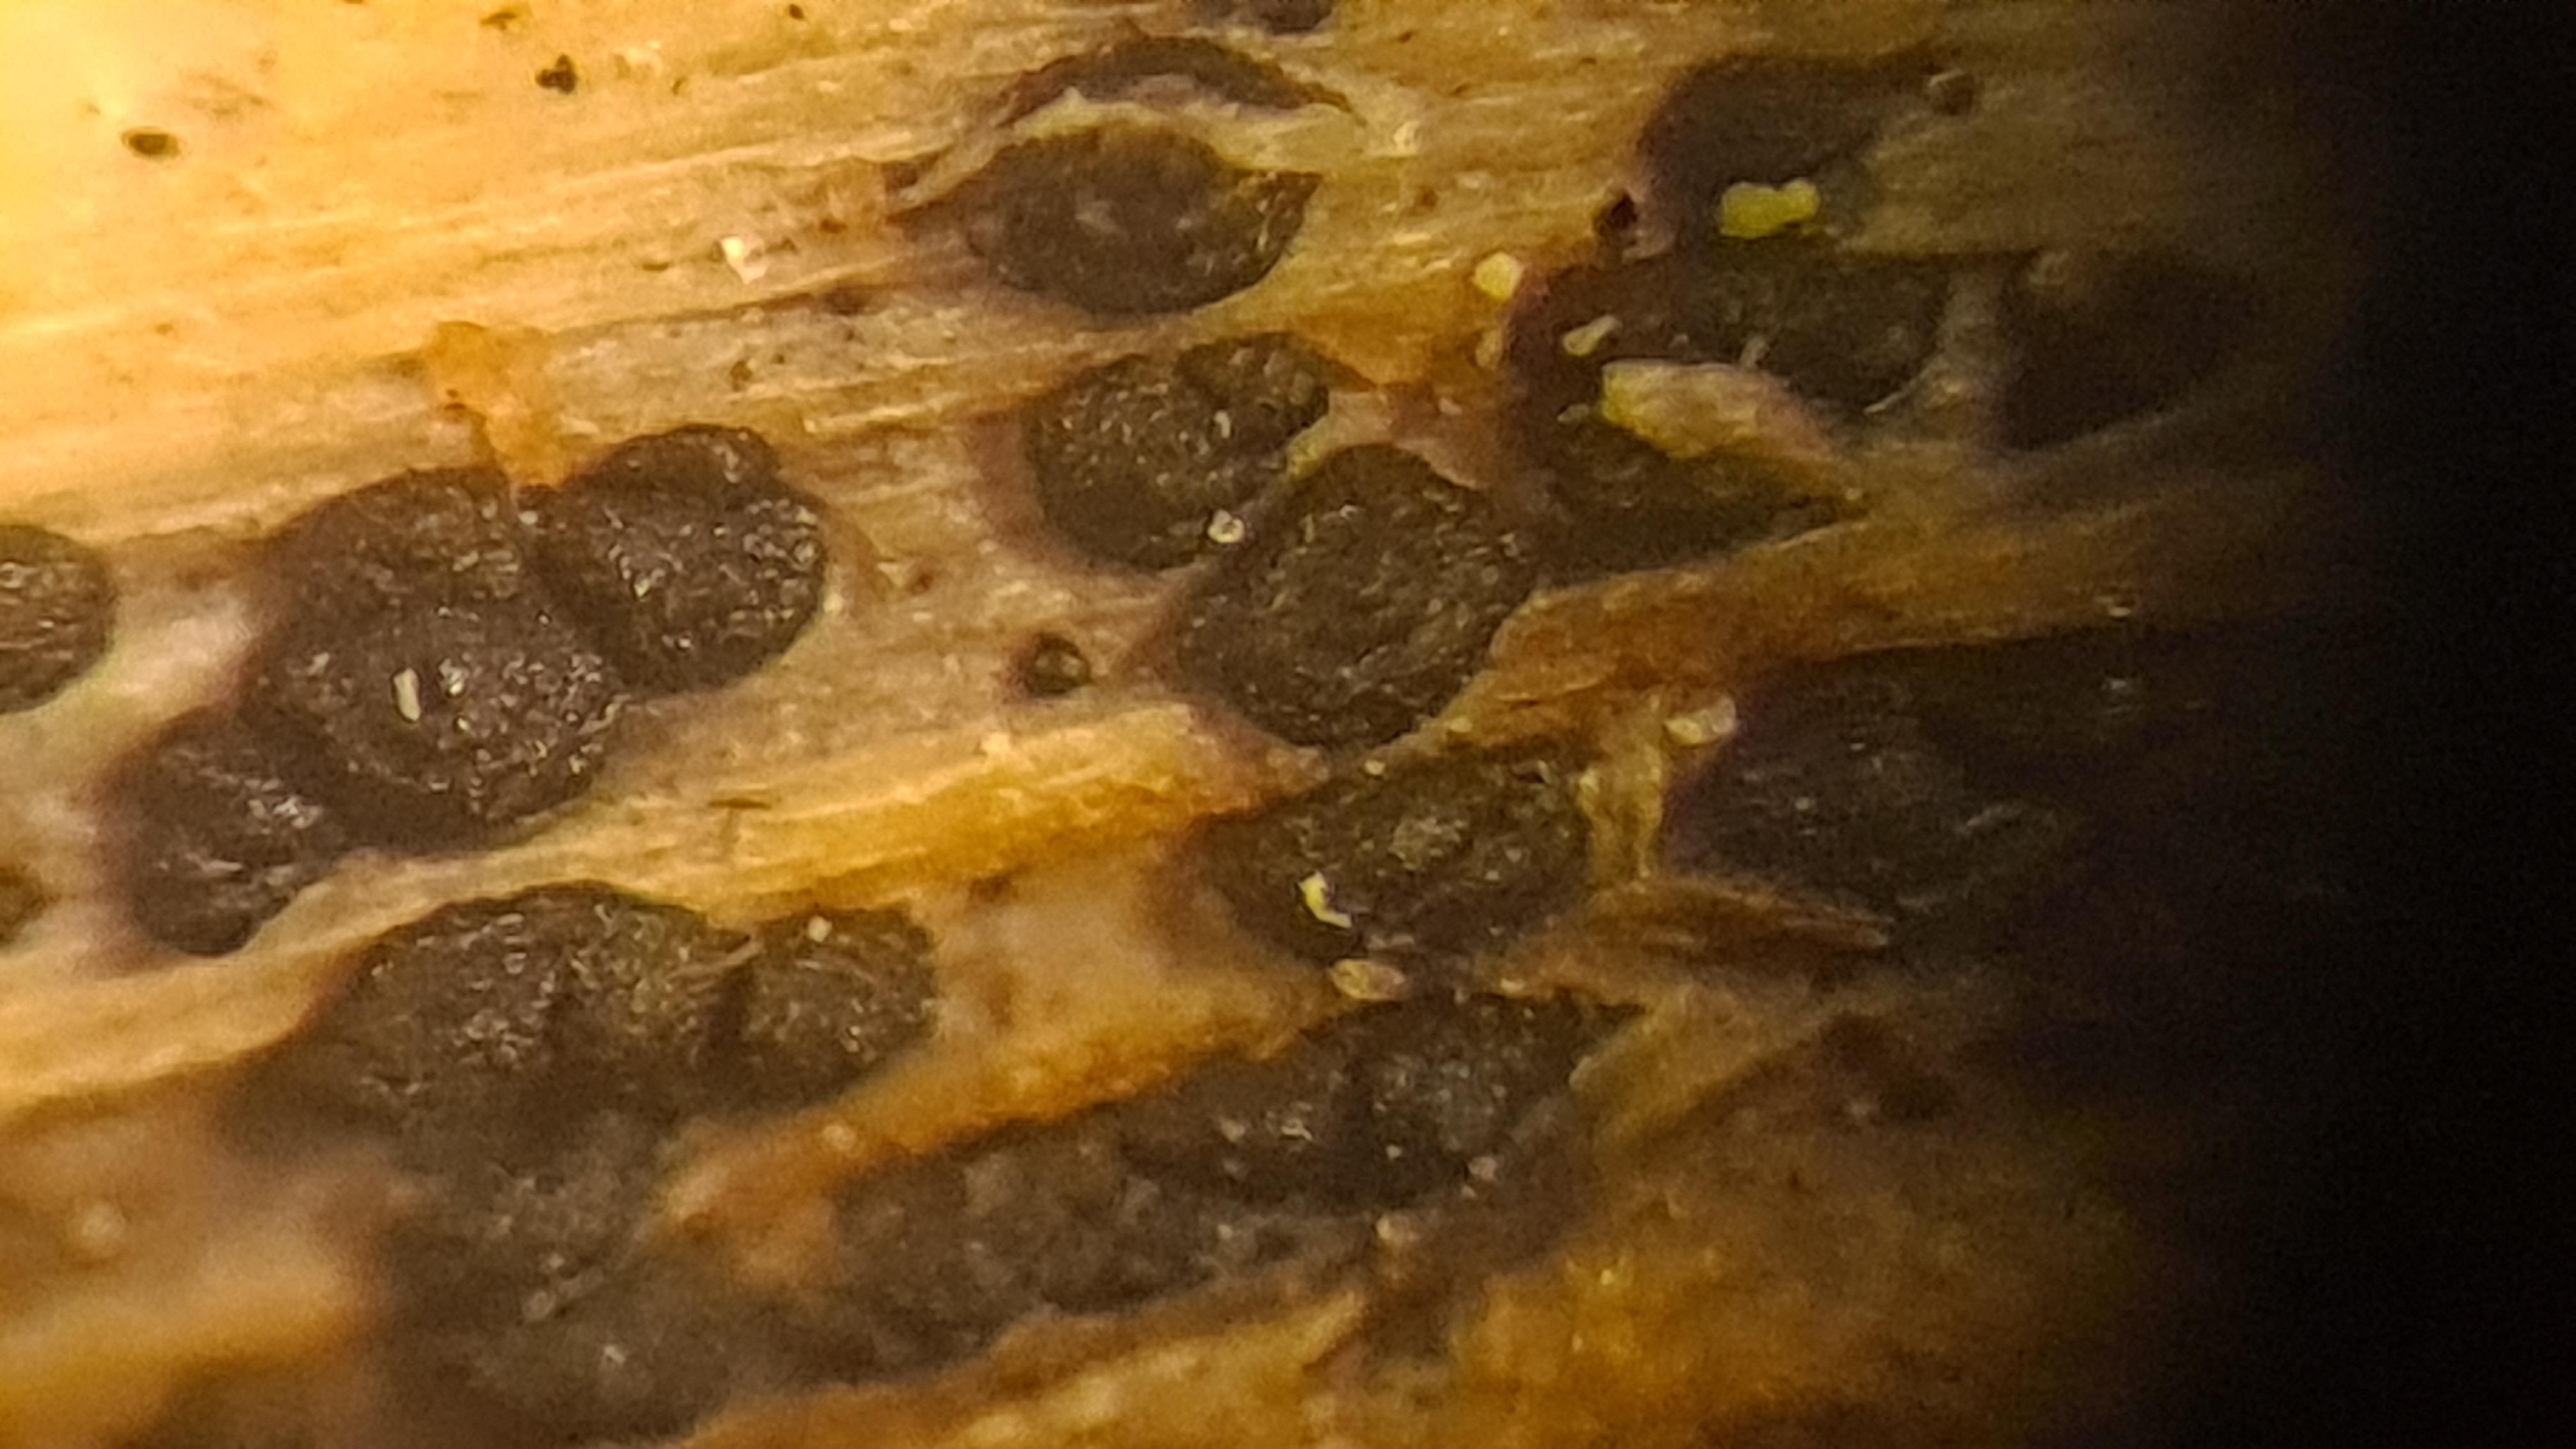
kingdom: Fungi
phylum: Ascomycota
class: Dothideomycetes
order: Pleosporales
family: Leptosphaeriaceae
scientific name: Leptosphaeriaceae
